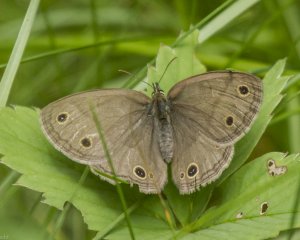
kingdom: Animalia
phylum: Arthropoda
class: Insecta
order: Lepidoptera
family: Nymphalidae
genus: Euptychia
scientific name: Euptychia cymela
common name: Little Wood Satyr
